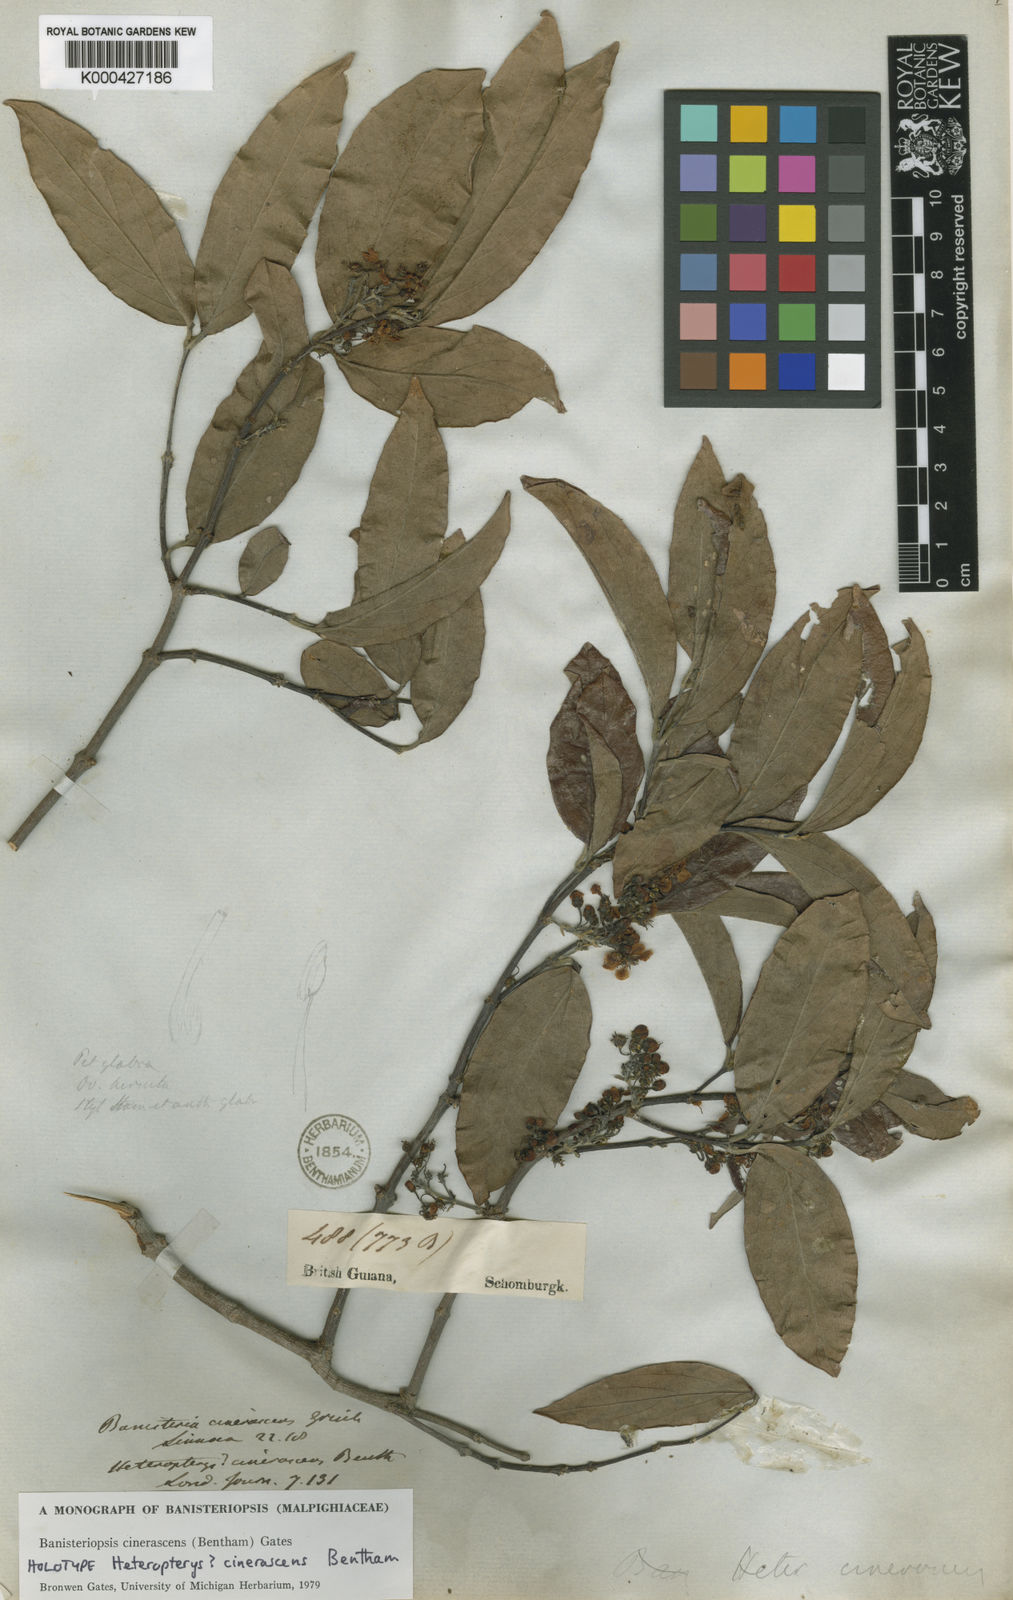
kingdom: Plantae
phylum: Tracheophyta
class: Magnoliopsida
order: Malpighiales
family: Malpighiaceae
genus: Bronwenia
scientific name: Bronwenia cinerascens
